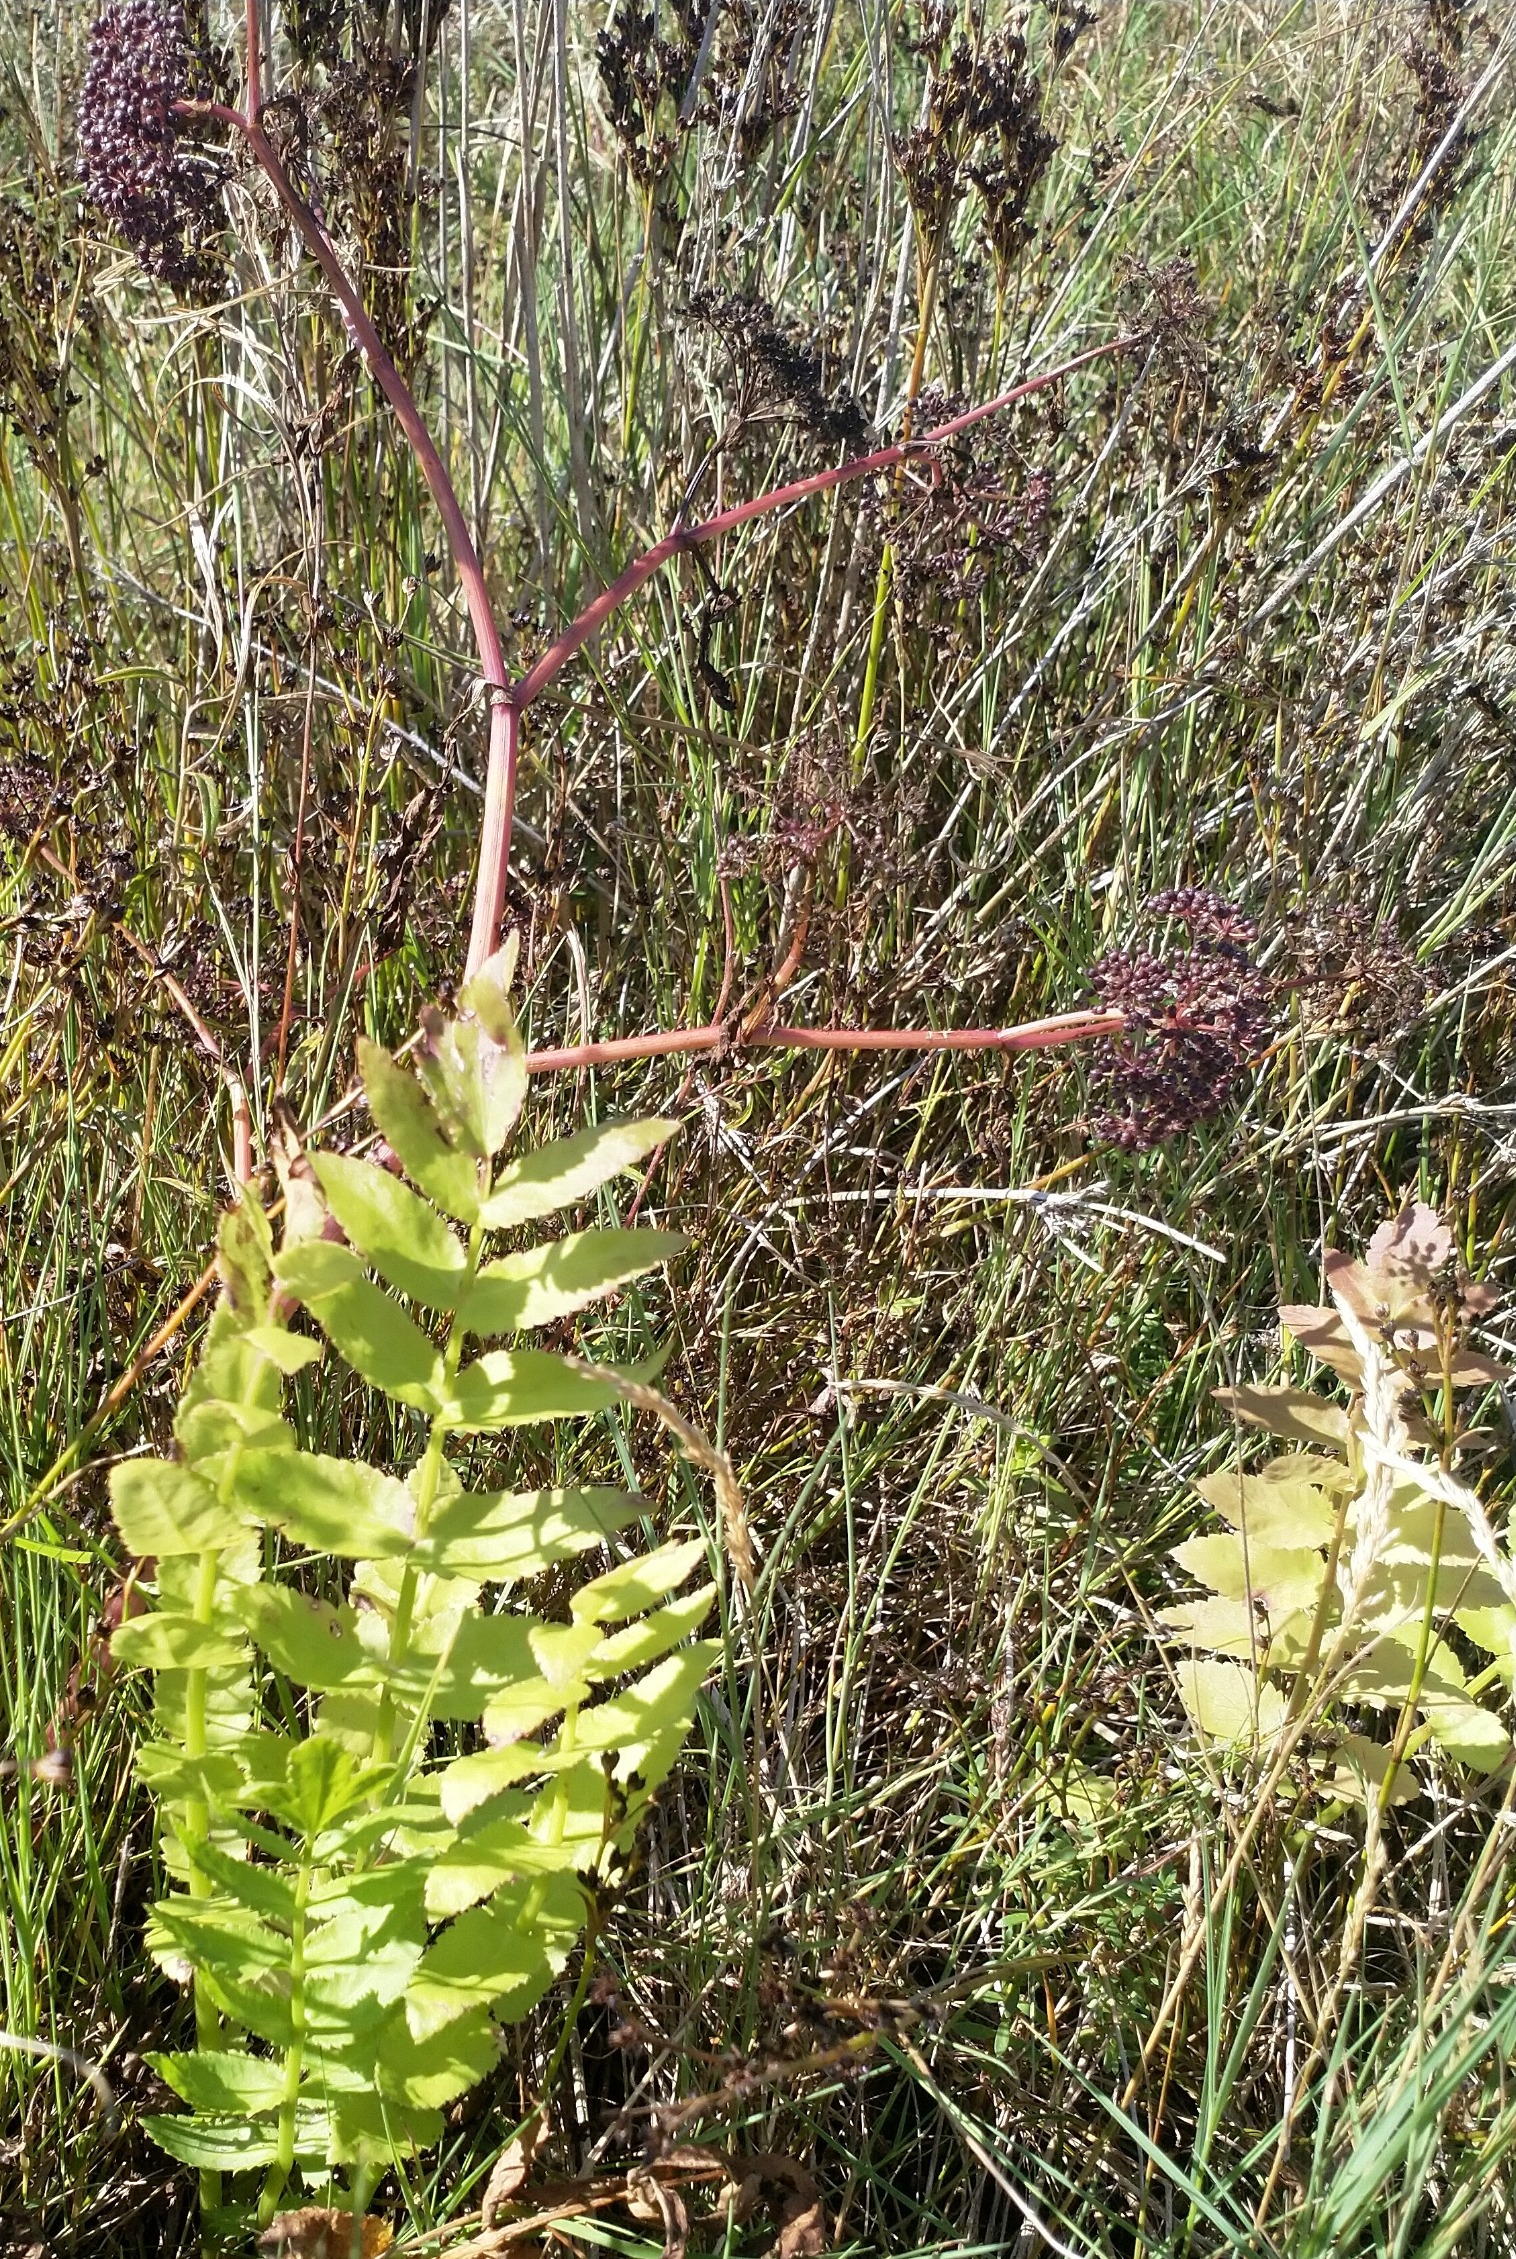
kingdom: Plantae
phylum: Tracheophyta
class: Magnoliopsida
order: Apiales
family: Apiaceae
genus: Berula
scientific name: Berula erecta
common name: Sideskærm
